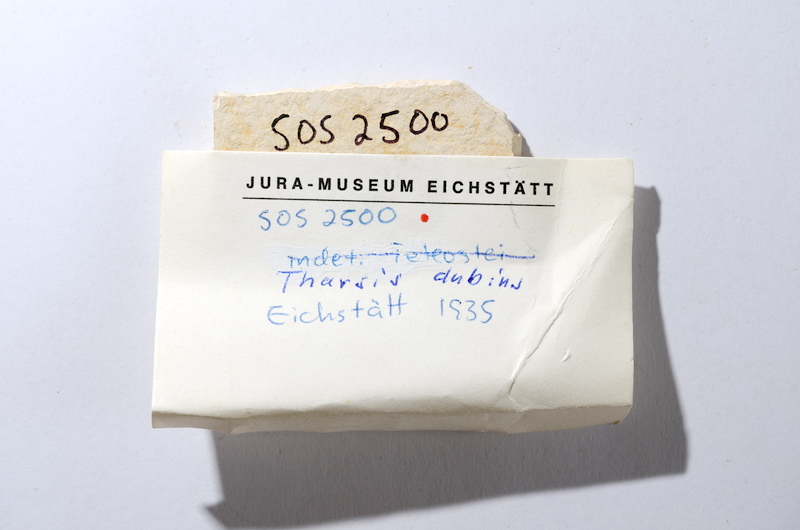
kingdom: Animalia
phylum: Chordata
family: Ascalaboidae
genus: Tharsis
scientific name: Tharsis dubius
